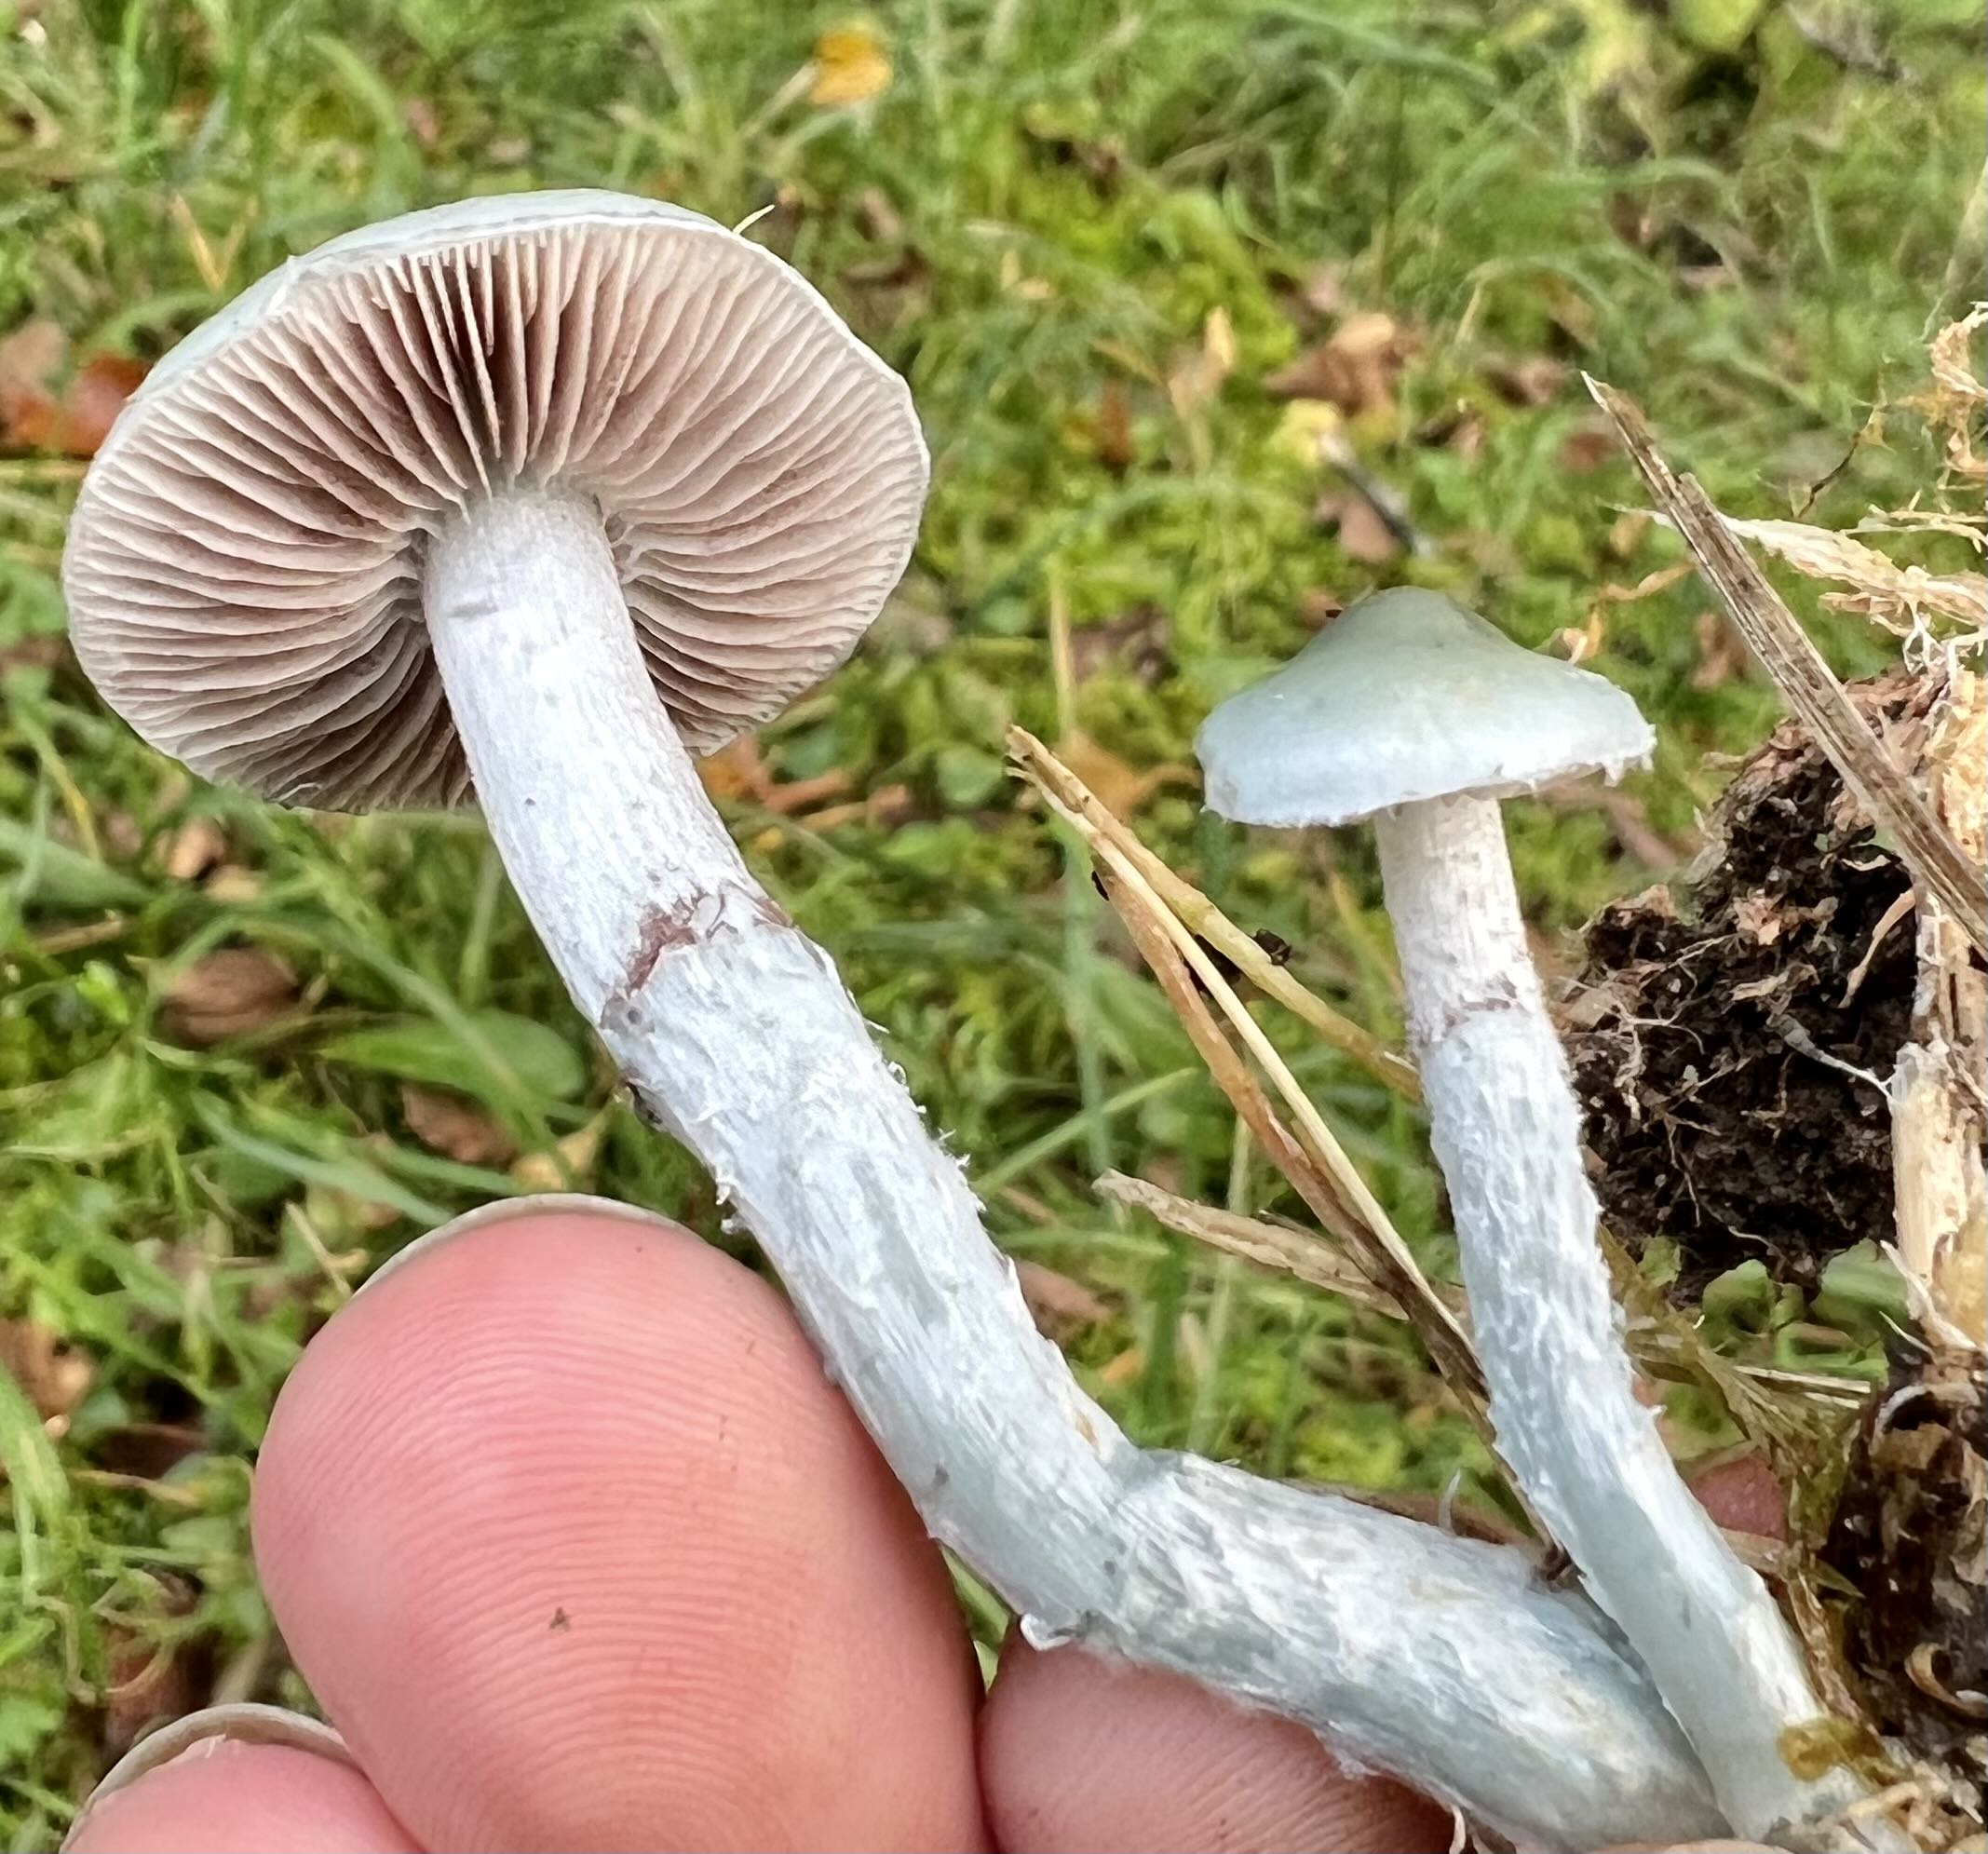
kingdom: Fungi
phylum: Basidiomycota
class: Agaricomycetes
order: Agaricales
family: Strophariaceae
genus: Stropharia
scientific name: Stropharia pseudocyanea
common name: blegblå bredblad
